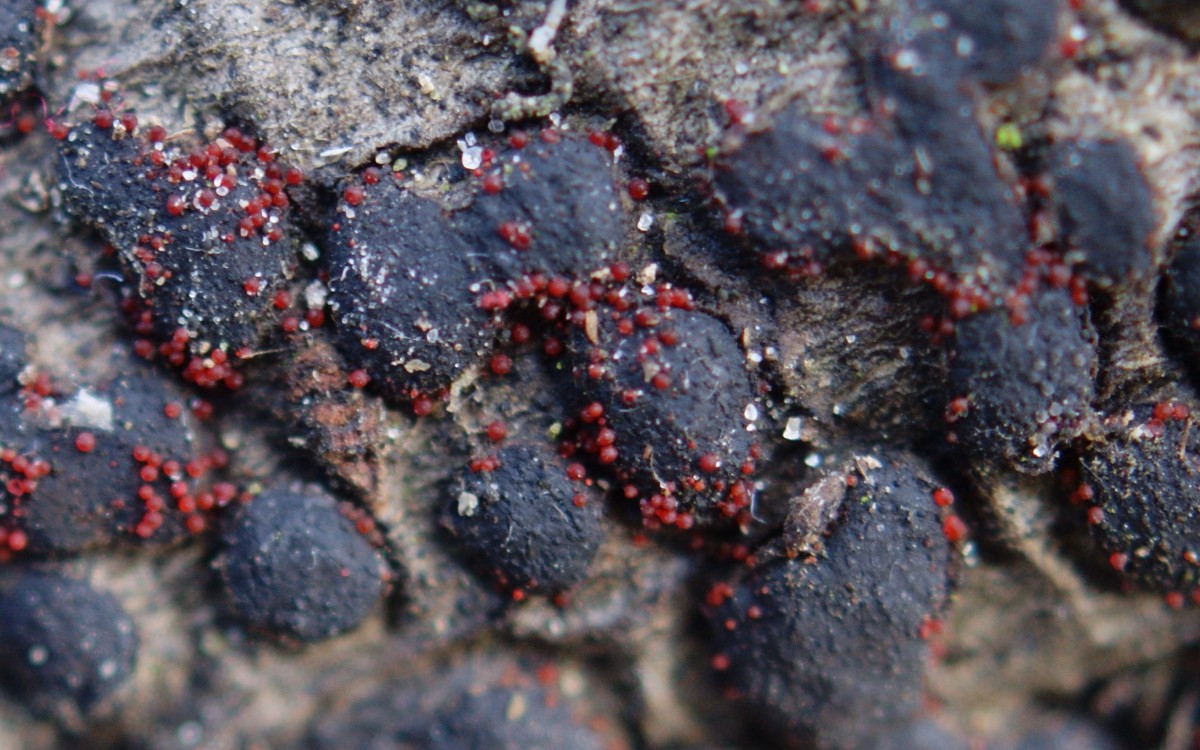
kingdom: Fungi
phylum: Ascomycota
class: Sordariomycetes
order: Hypocreales
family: Nectriaceae
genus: Cosmospora
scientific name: Cosmospora
